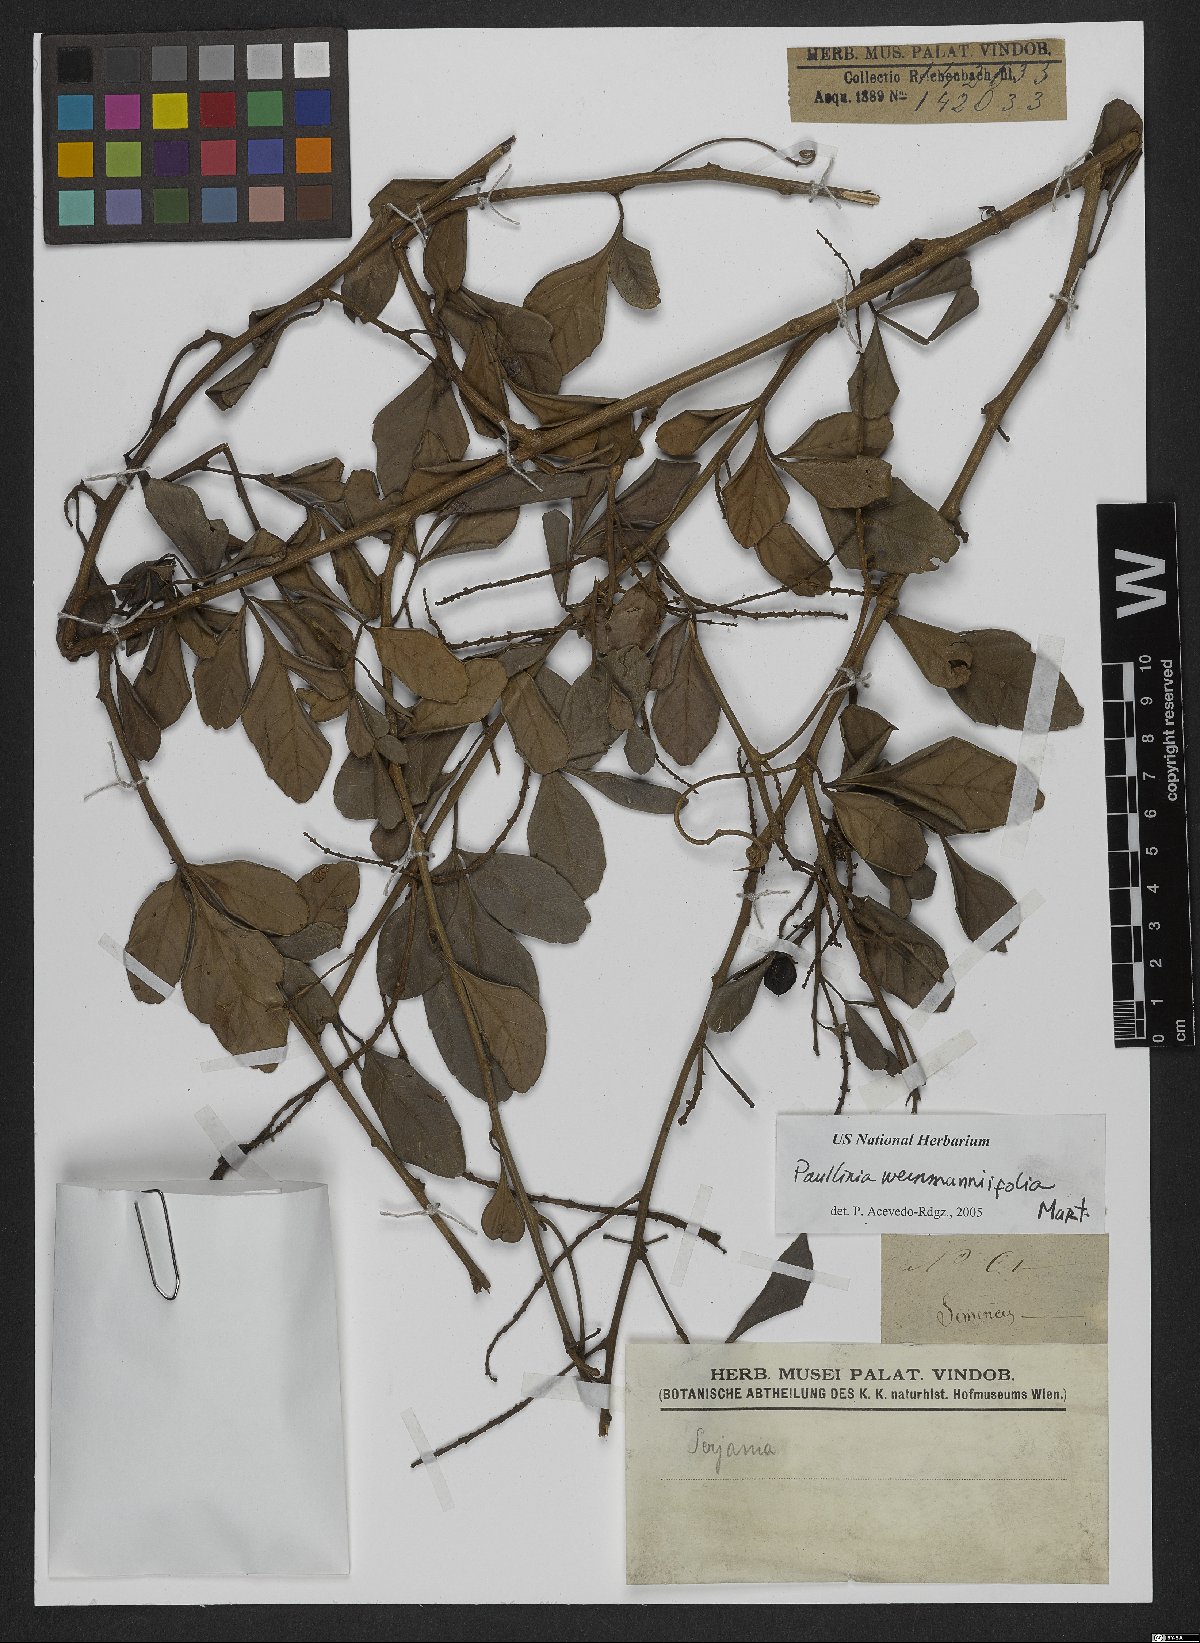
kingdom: Plantae
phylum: Tracheophyta
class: Magnoliopsida
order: Sapindales
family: Sapindaceae
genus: Paullinia
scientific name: Paullinia weinmanniifolia
